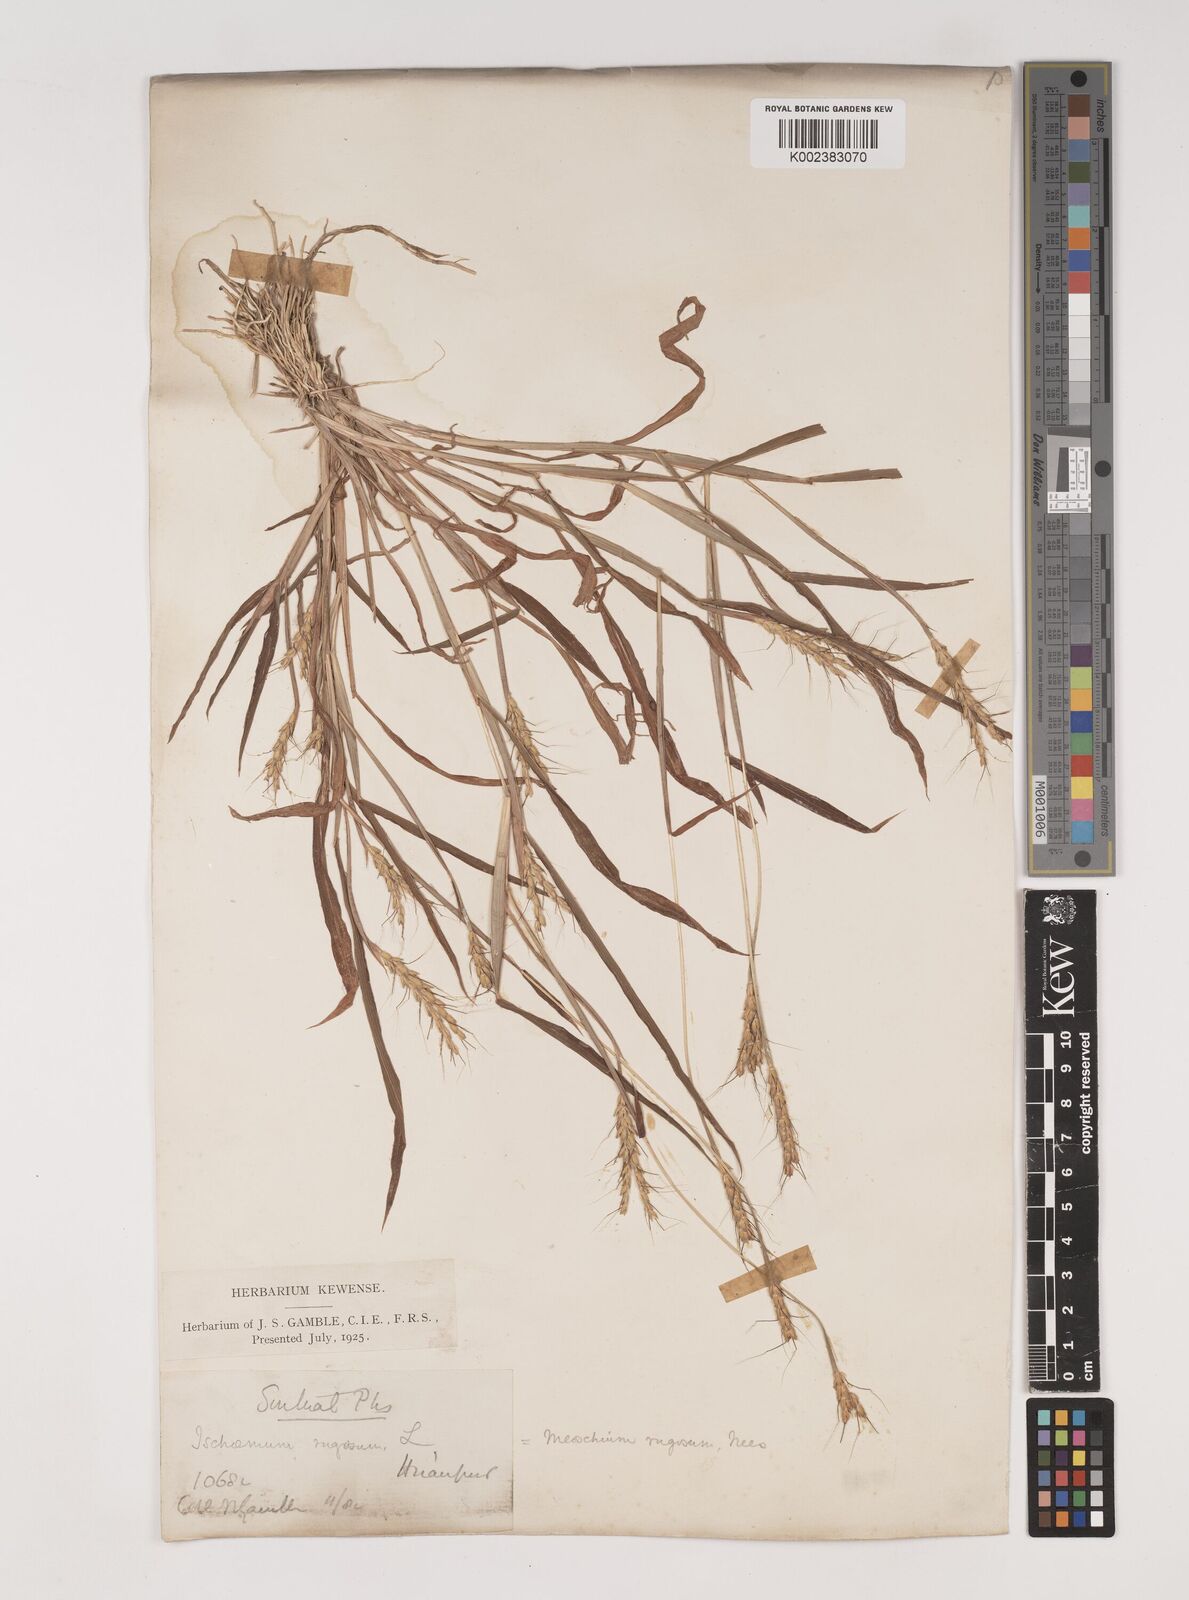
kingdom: Plantae
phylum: Tracheophyta
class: Liliopsida
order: Poales
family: Poaceae
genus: Ischaemum
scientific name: Ischaemum rugosum
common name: Saramatta grass
